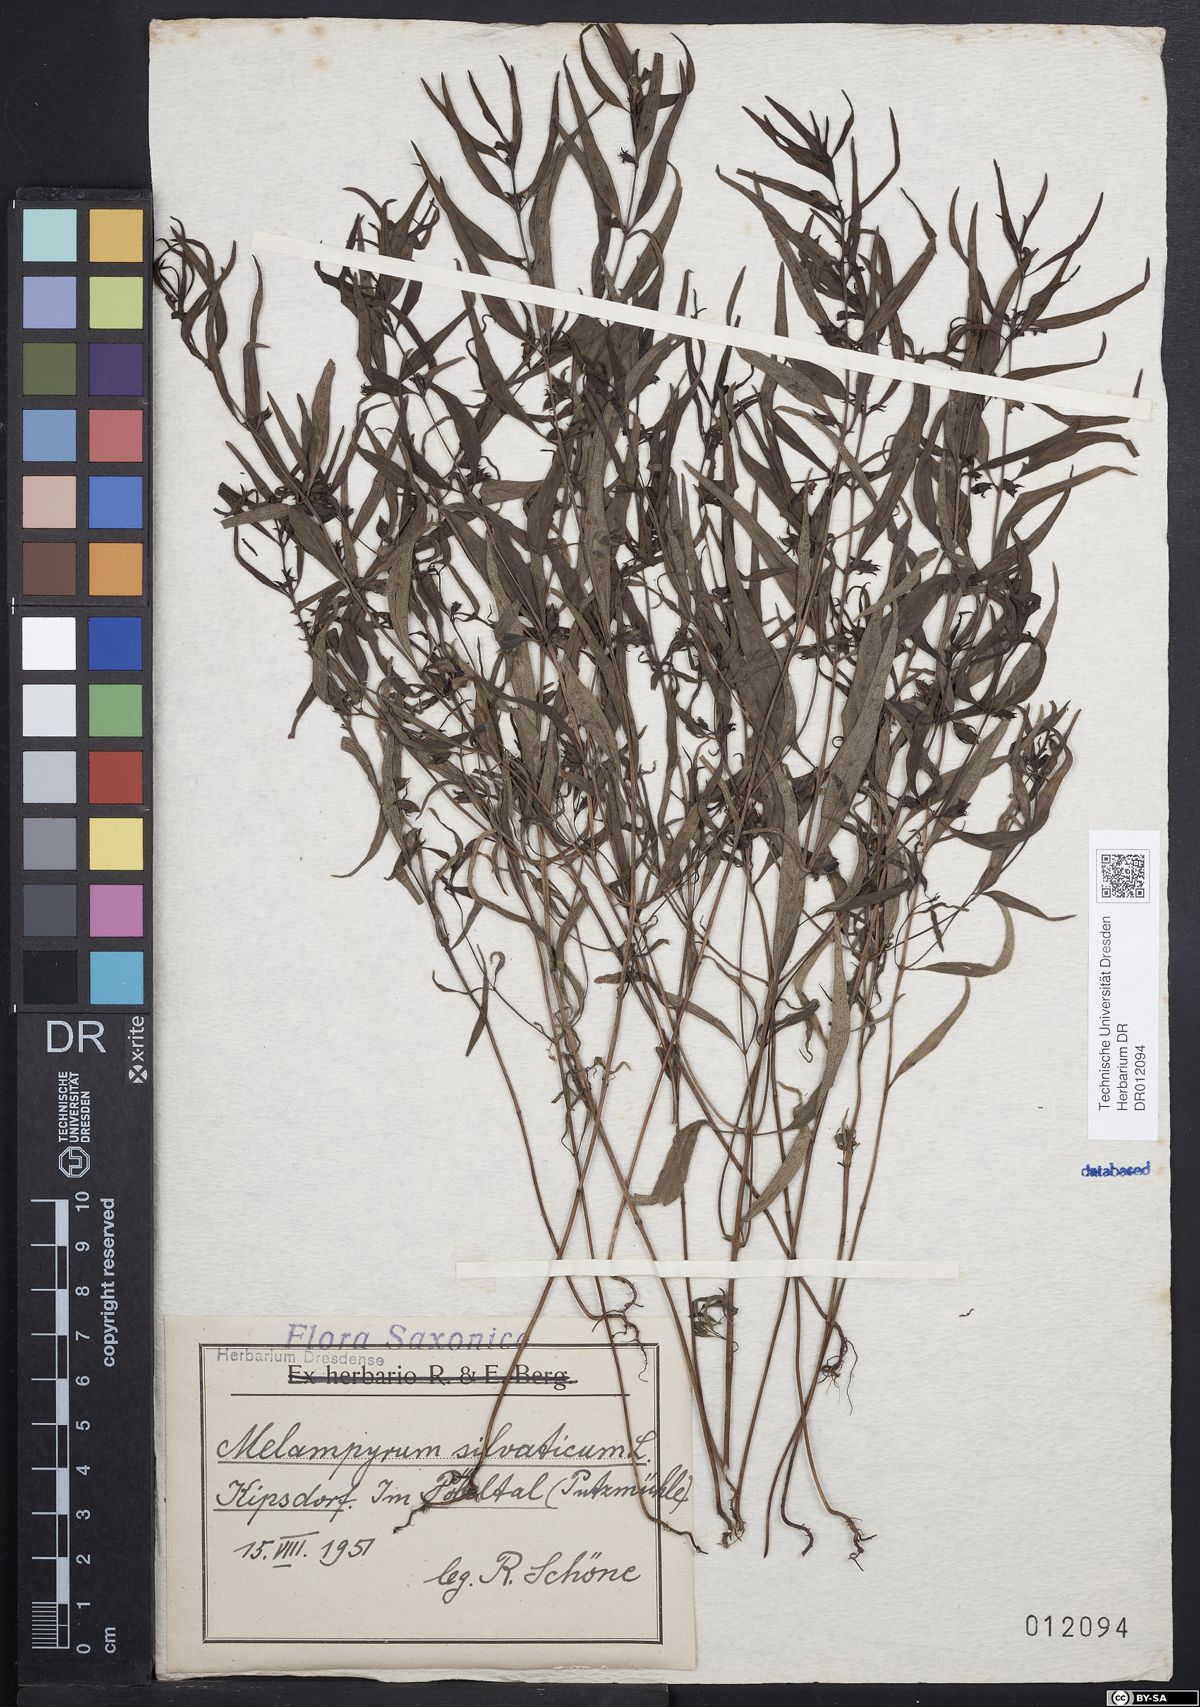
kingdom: Plantae
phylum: Tracheophyta
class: Magnoliopsida
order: Lamiales
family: Orobanchaceae
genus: Melampyrum
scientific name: Melampyrum sylvaticum
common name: Small cow-wheat
